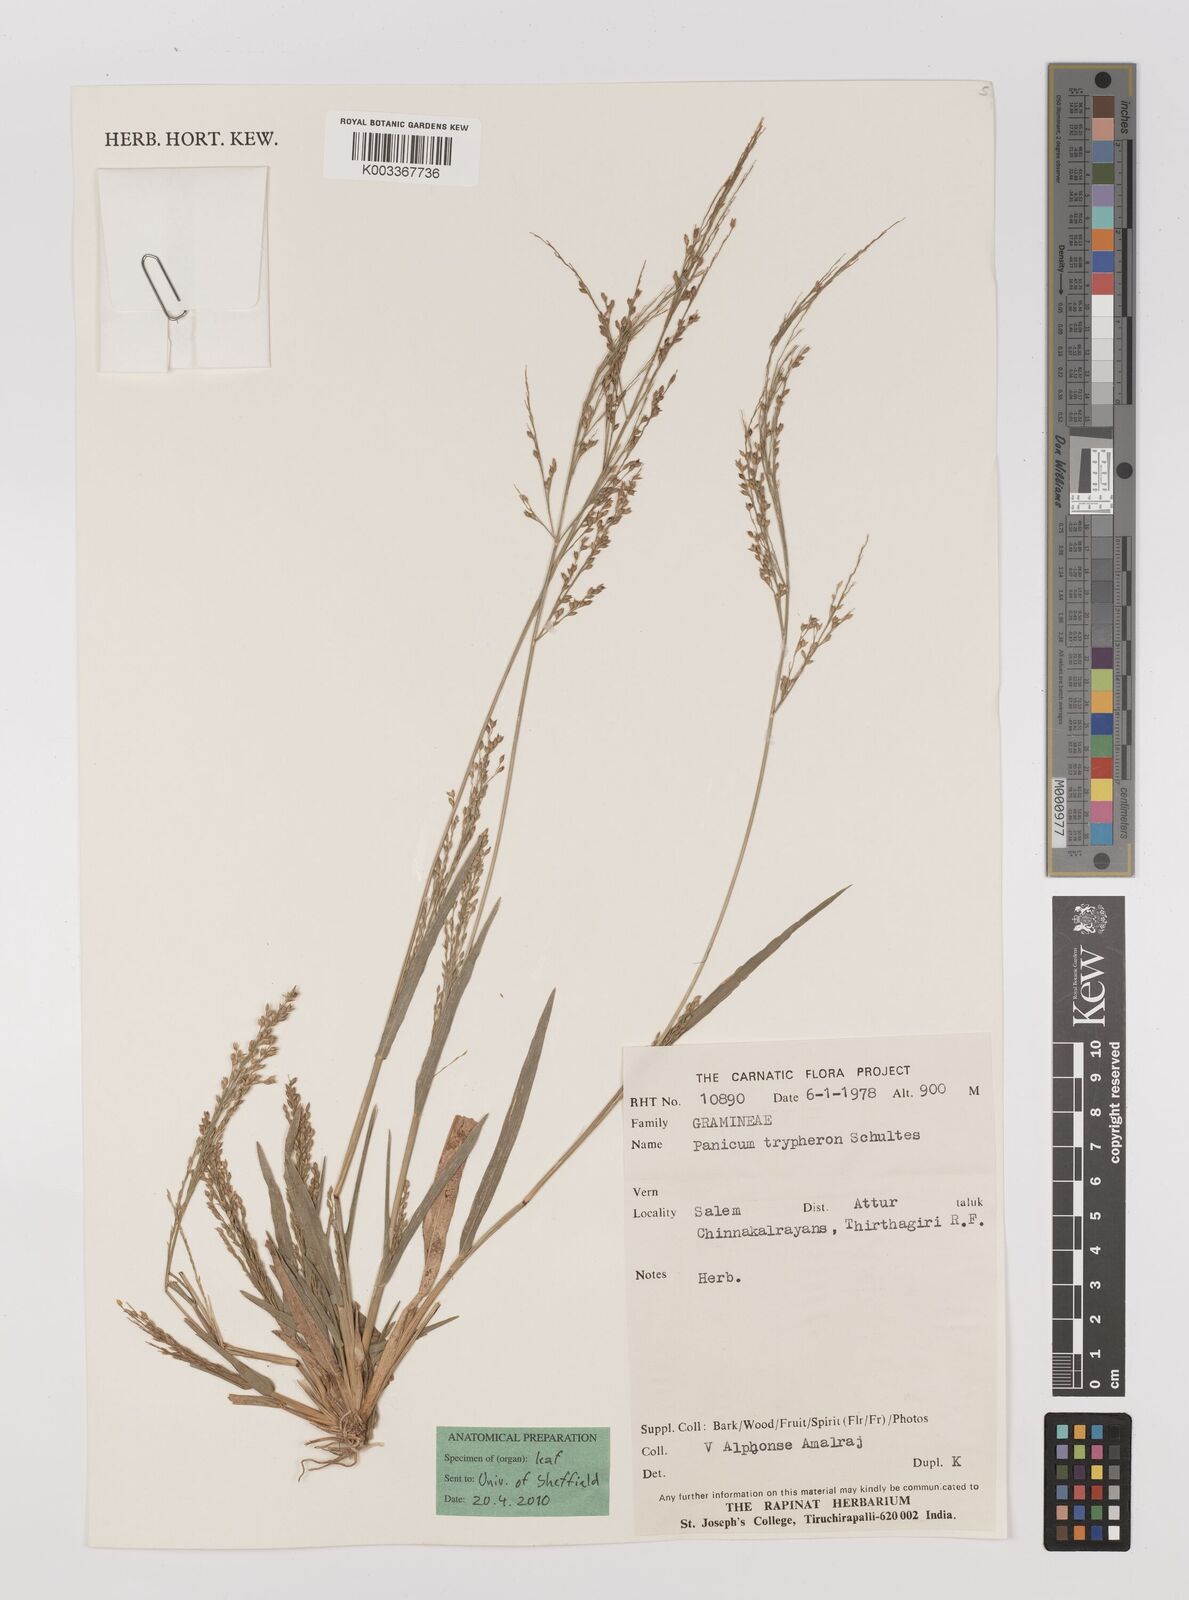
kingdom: Plantae
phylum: Tracheophyta
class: Liliopsida
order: Poales
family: Poaceae
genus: Panicum
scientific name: Panicum curviflorum
